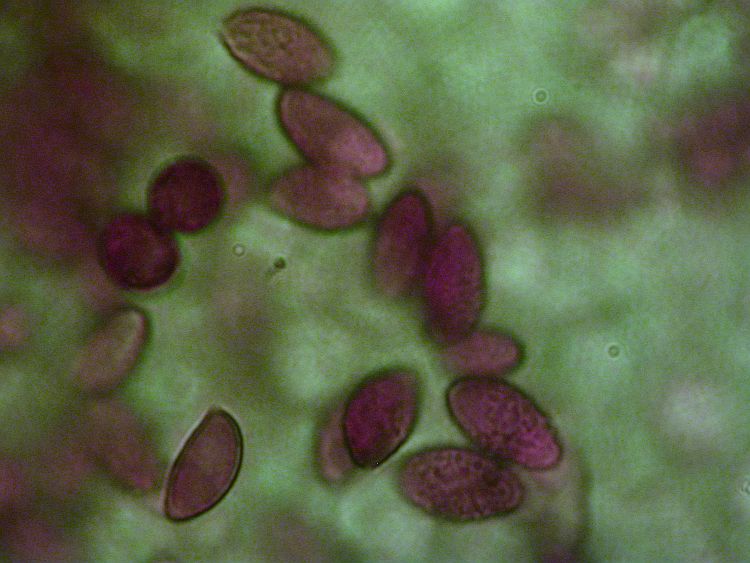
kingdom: Fungi
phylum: Basidiomycota
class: Agaricomycetes
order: Agaricales
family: Cortinariaceae
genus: Phlegmacium
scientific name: Phlegmacium luhmannii
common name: musegrå slørhat
